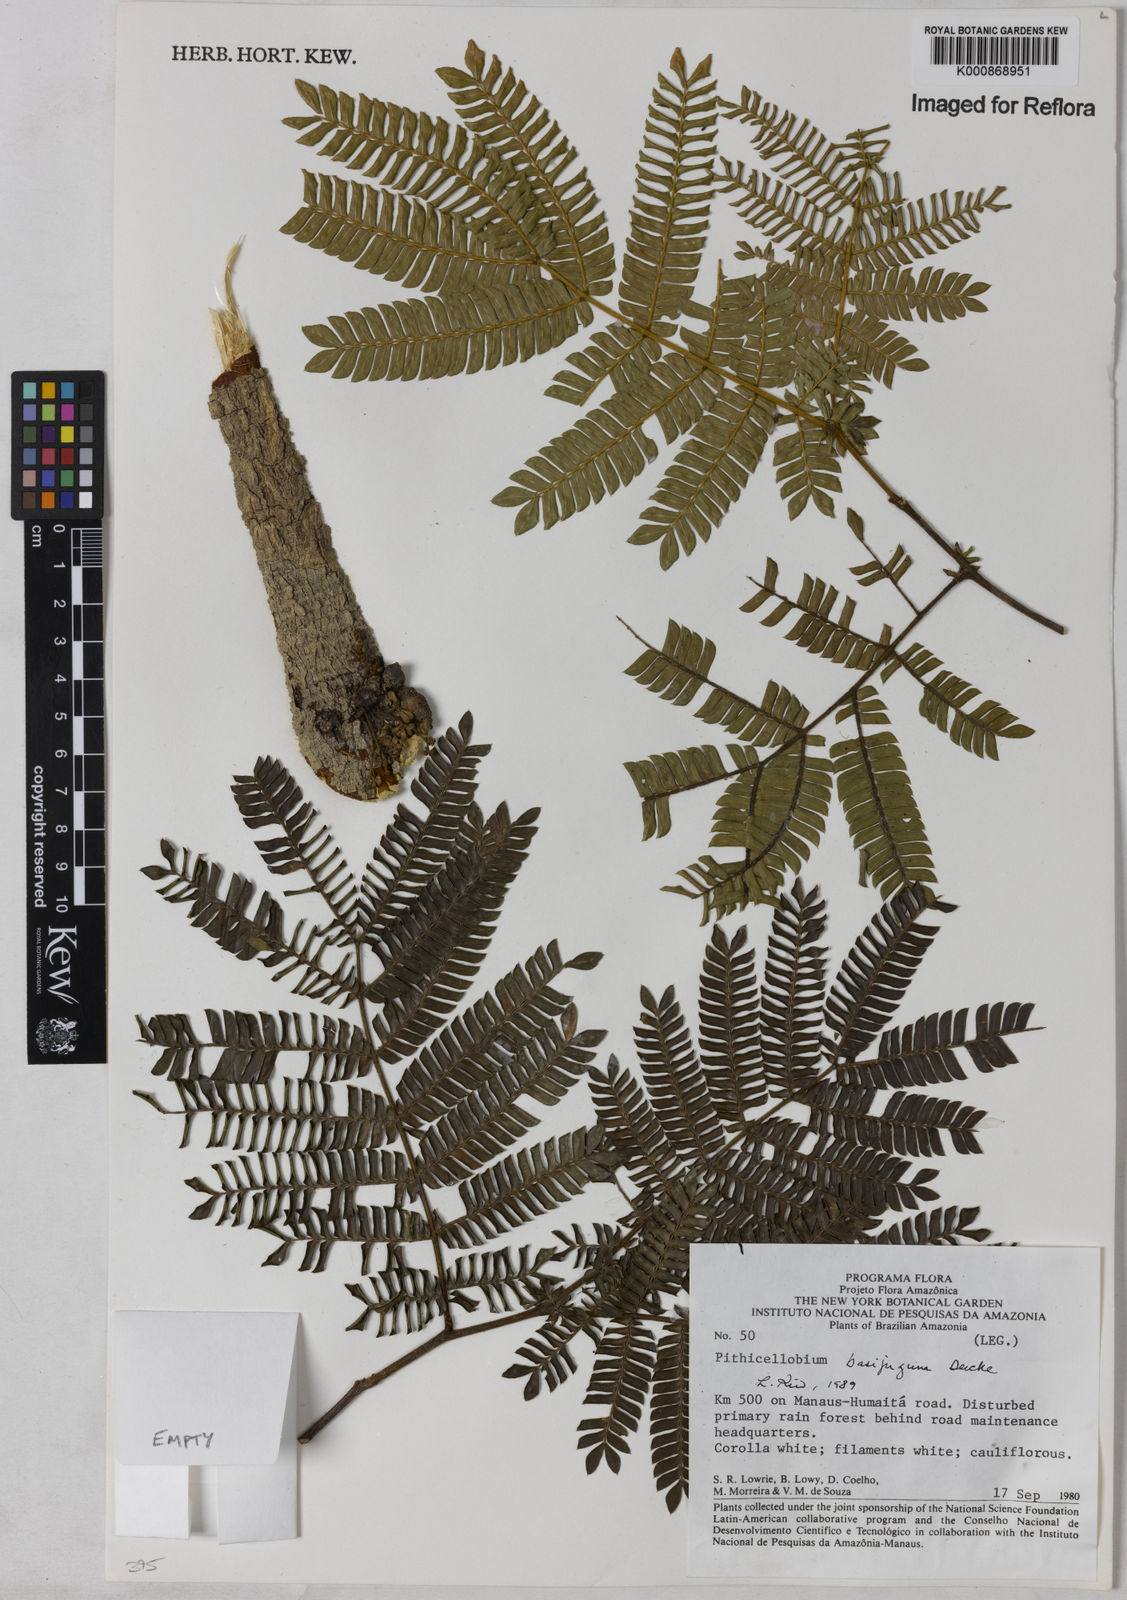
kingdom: Plantae
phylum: Tracheophyta
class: Magnoliopsida
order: Fabales
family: Fabaceae
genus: Zygia
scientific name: Zygia basijuga
